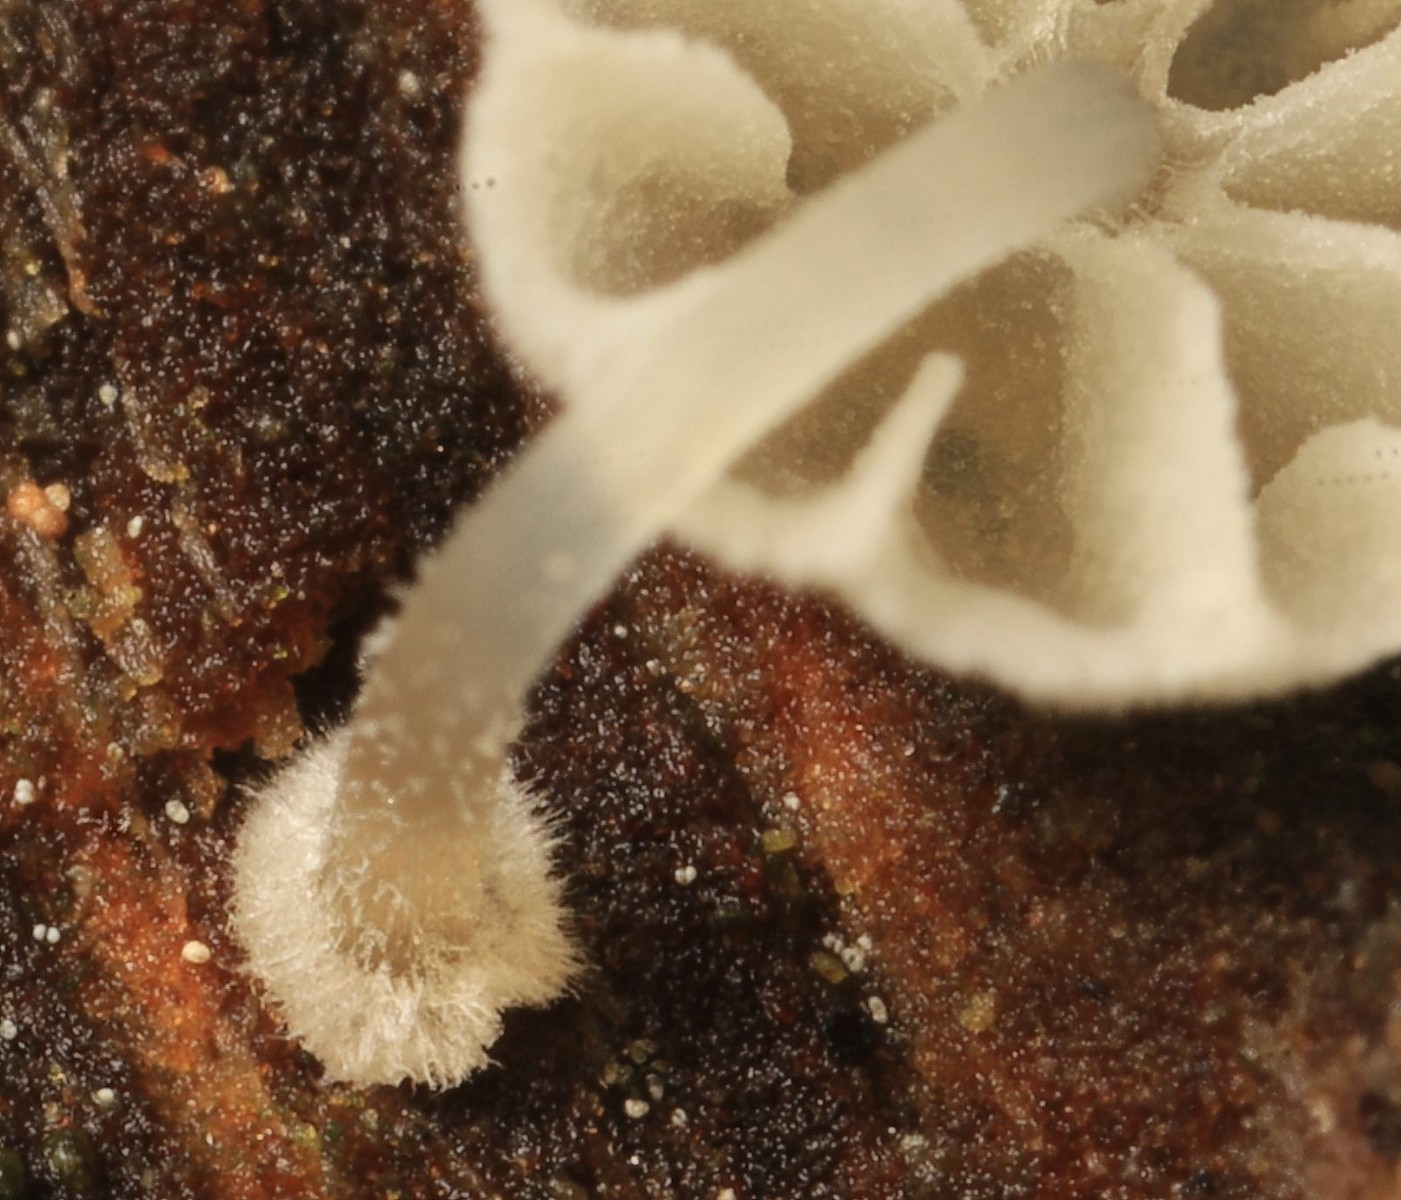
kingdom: Fungi
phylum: Basidiomycota
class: Agaricomycetes
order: Agaricales
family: Mycenaceae
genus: Mycena
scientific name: Mycena clavularis
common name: dunskivet huesvamp
